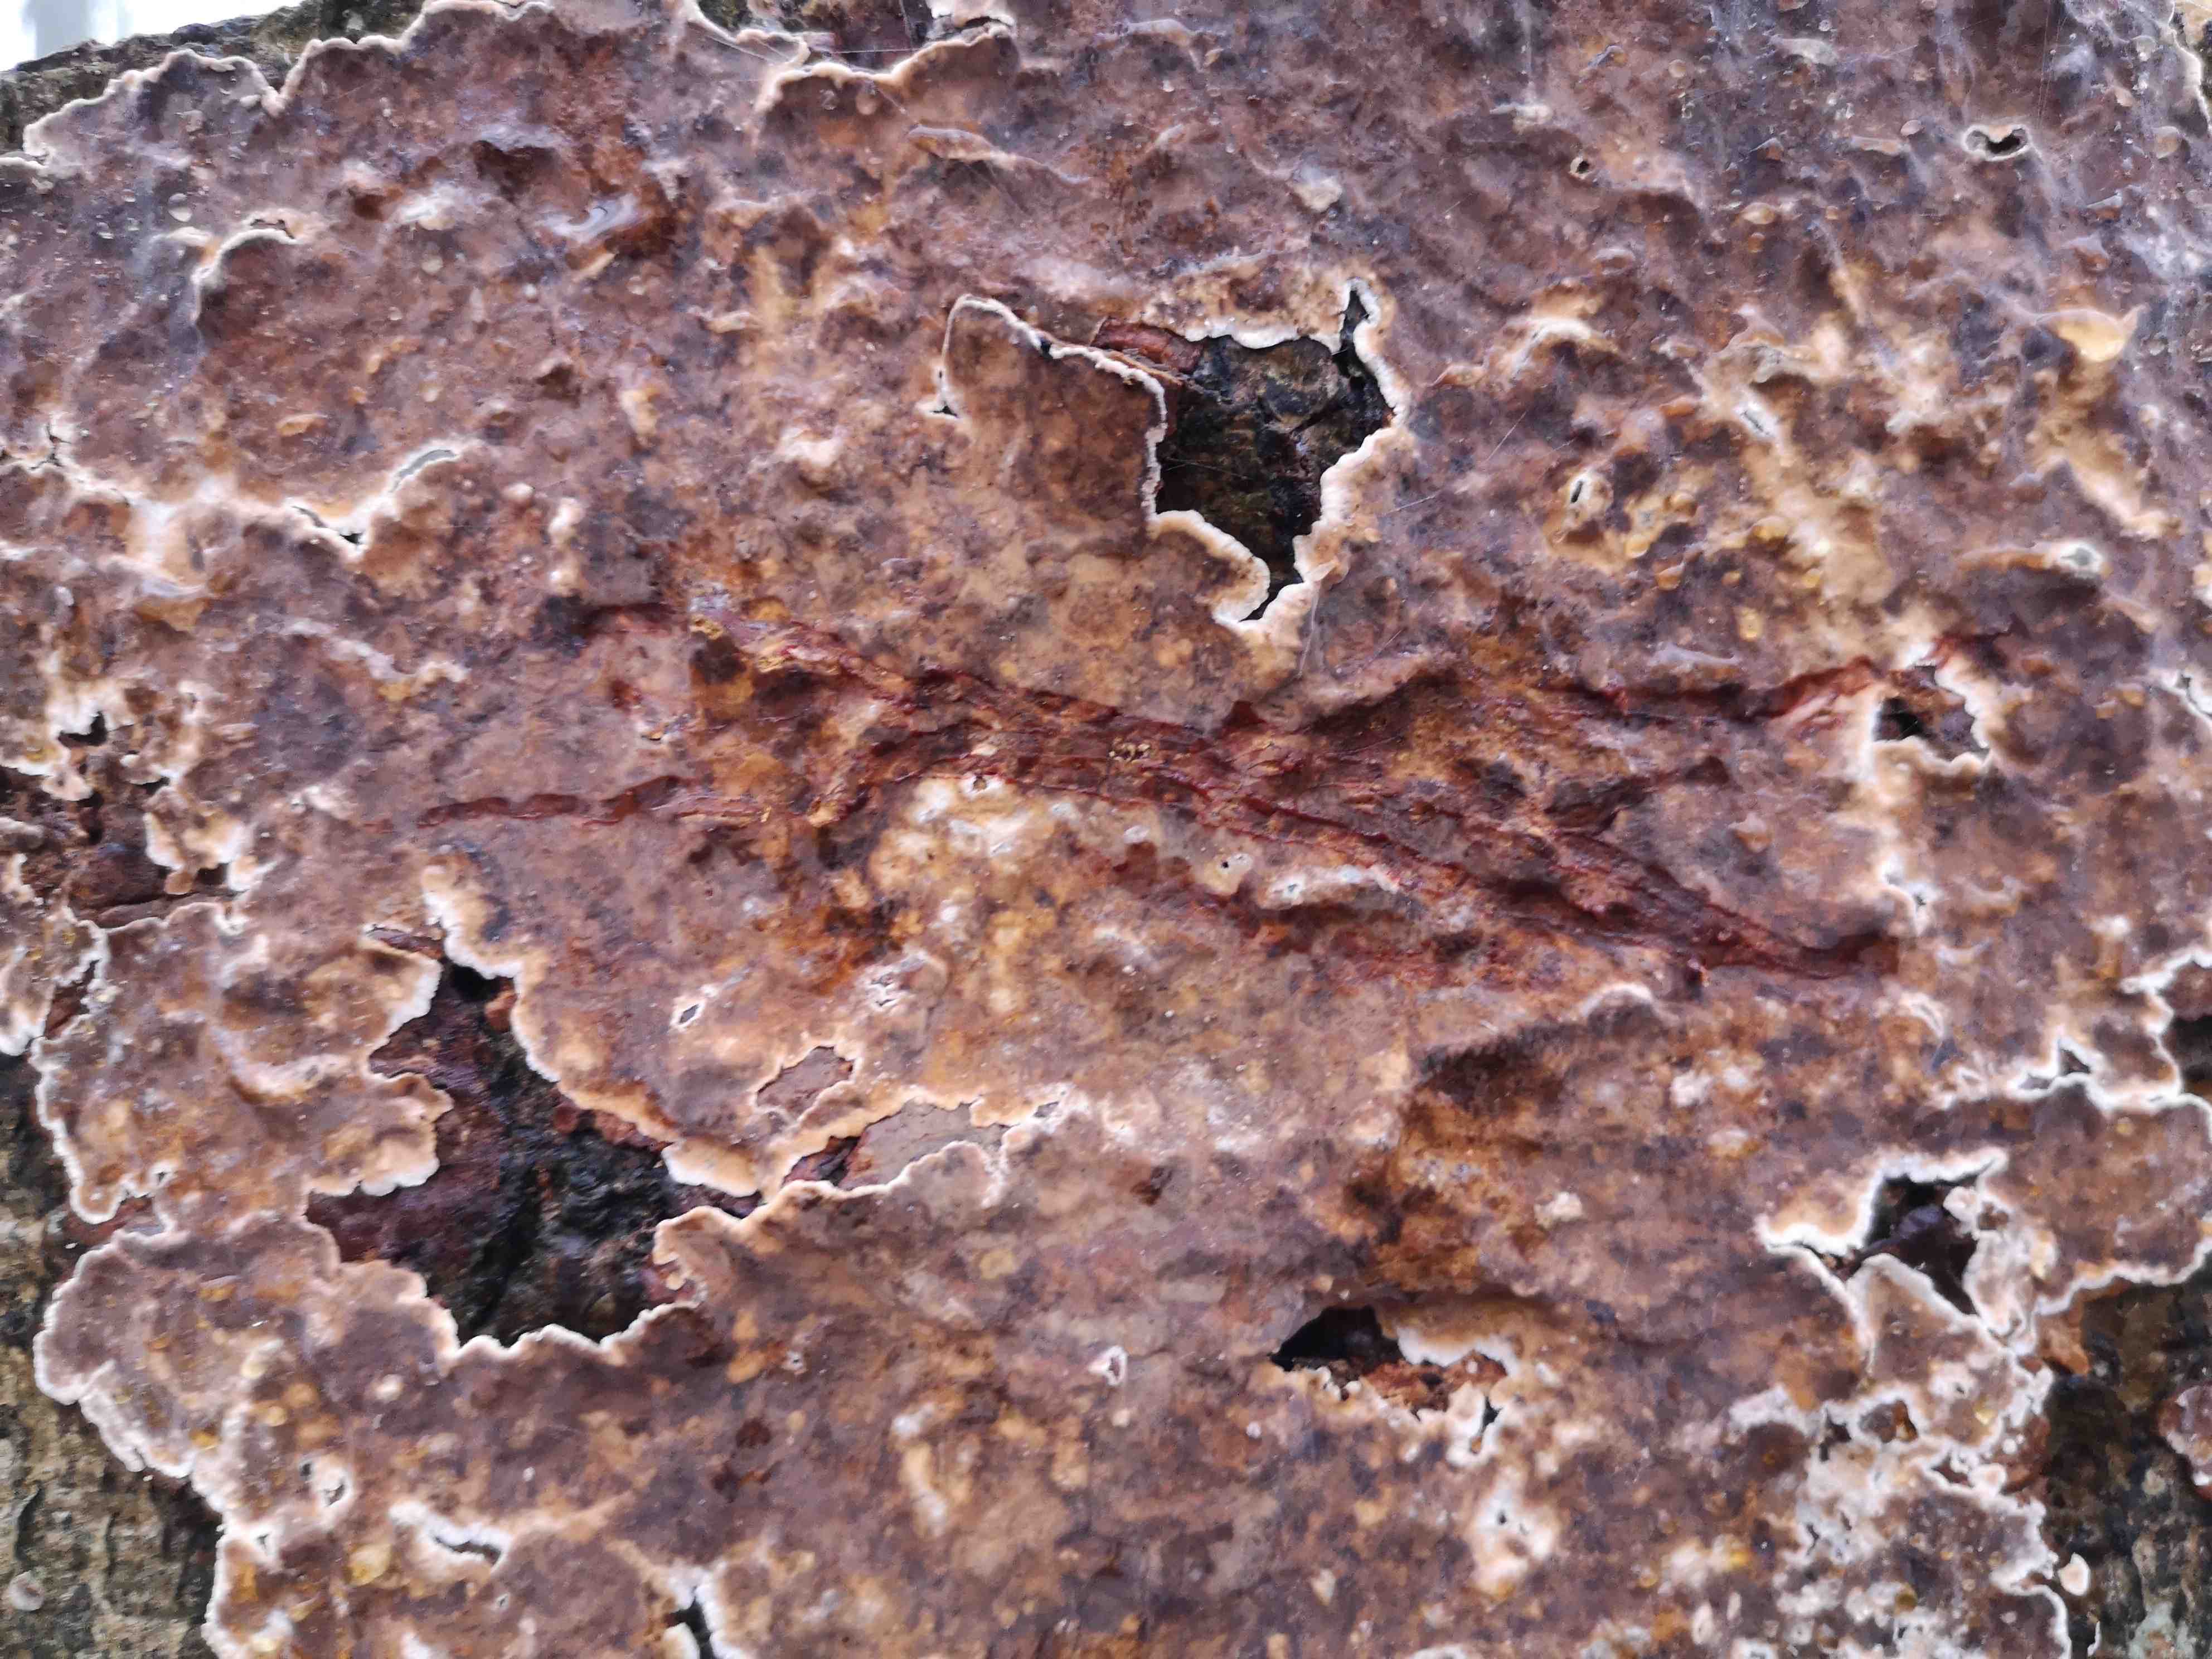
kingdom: Fungi
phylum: Basidiomycota
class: Agaricomycetes
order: Russulales
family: Stereaceae
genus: Stereum
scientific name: Stereum rugosum
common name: rynket lædersvamp
